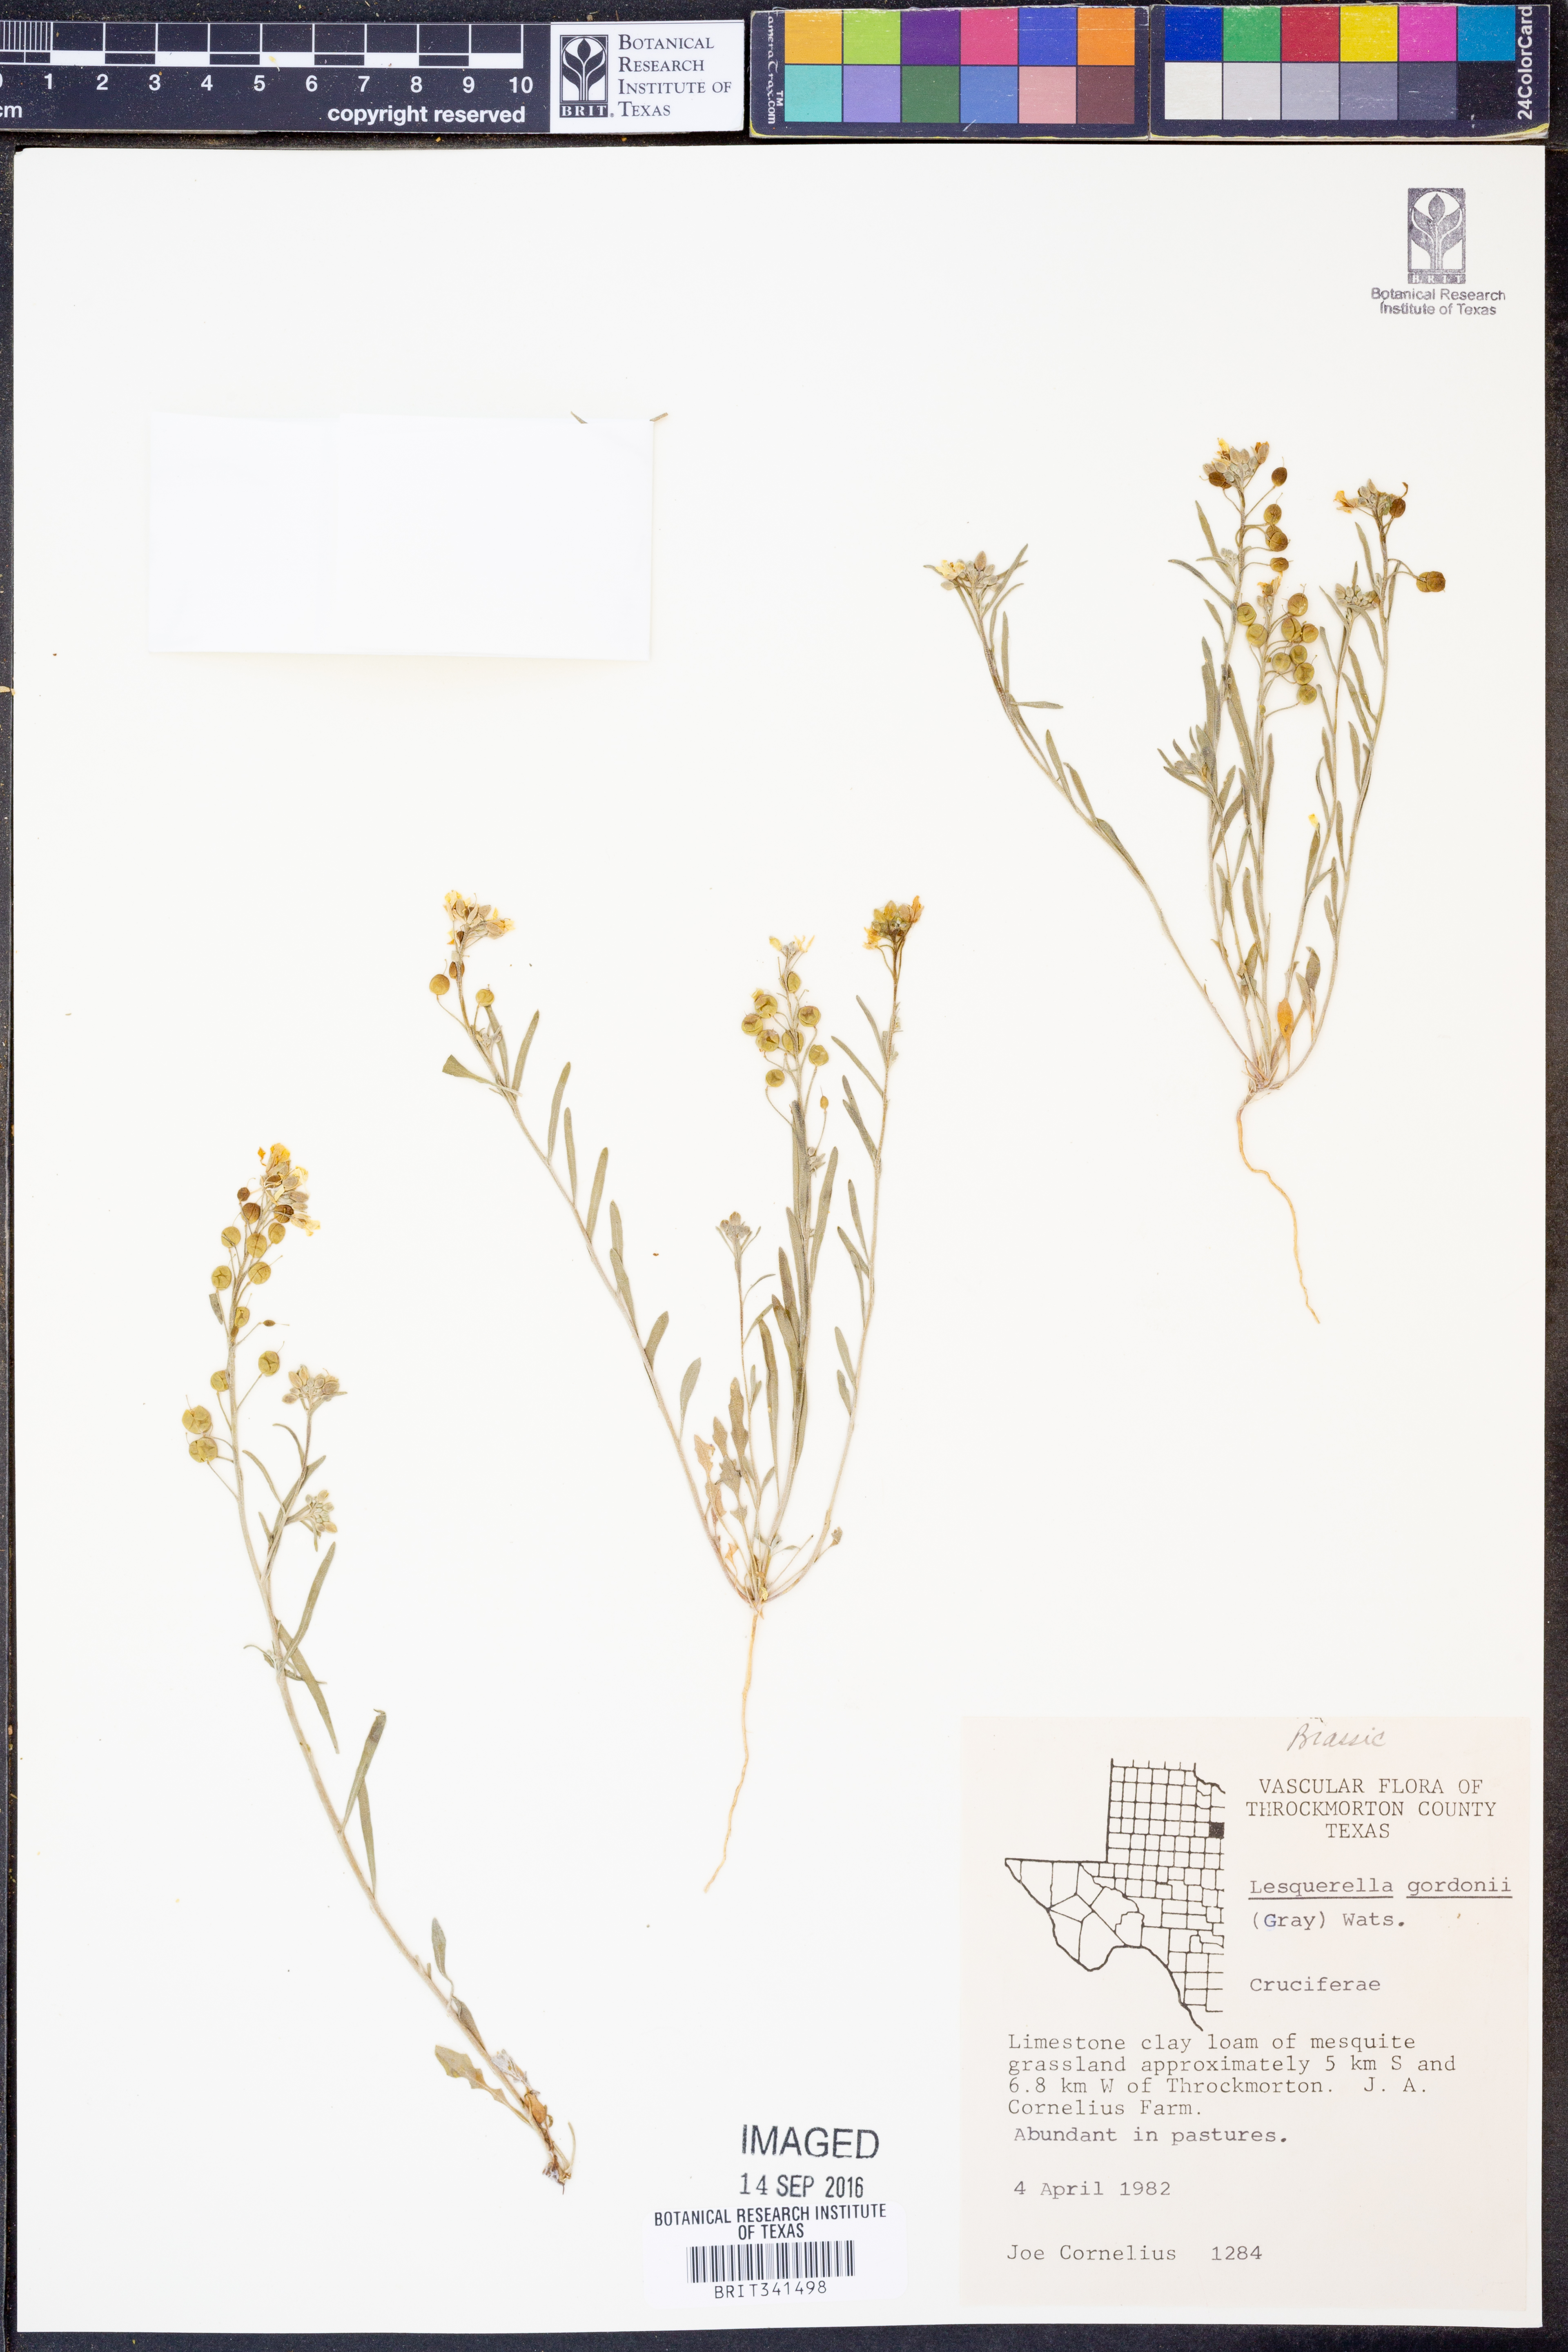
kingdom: Plantae
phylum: Tracheophyta
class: Magnoliopsida
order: Brassicales
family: Brassicaceae
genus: Physaria
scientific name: Physaria gordonii
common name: Gordon's bladderpod
